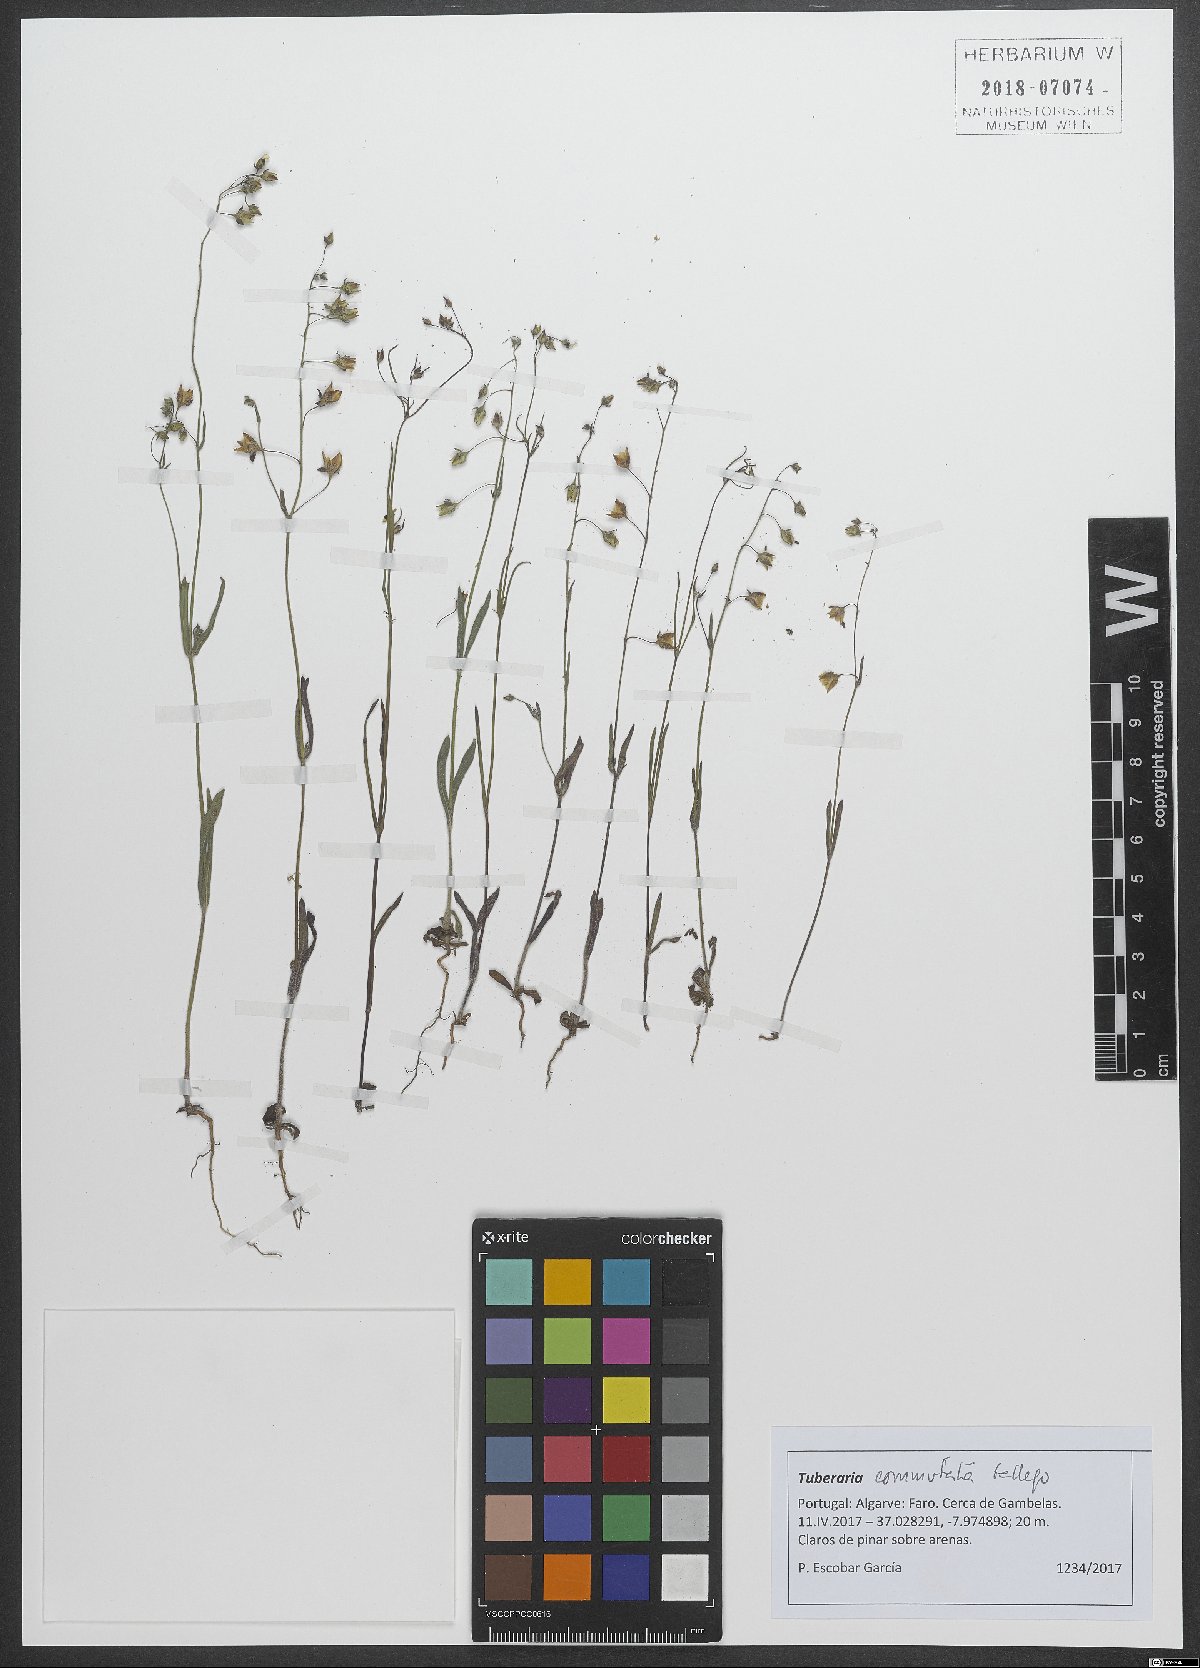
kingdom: Plantae
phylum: Tracheophyta
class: Magnoliopsida
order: Malvales
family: Cistaceae
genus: Tuberaria
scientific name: Tuberaria commutata
